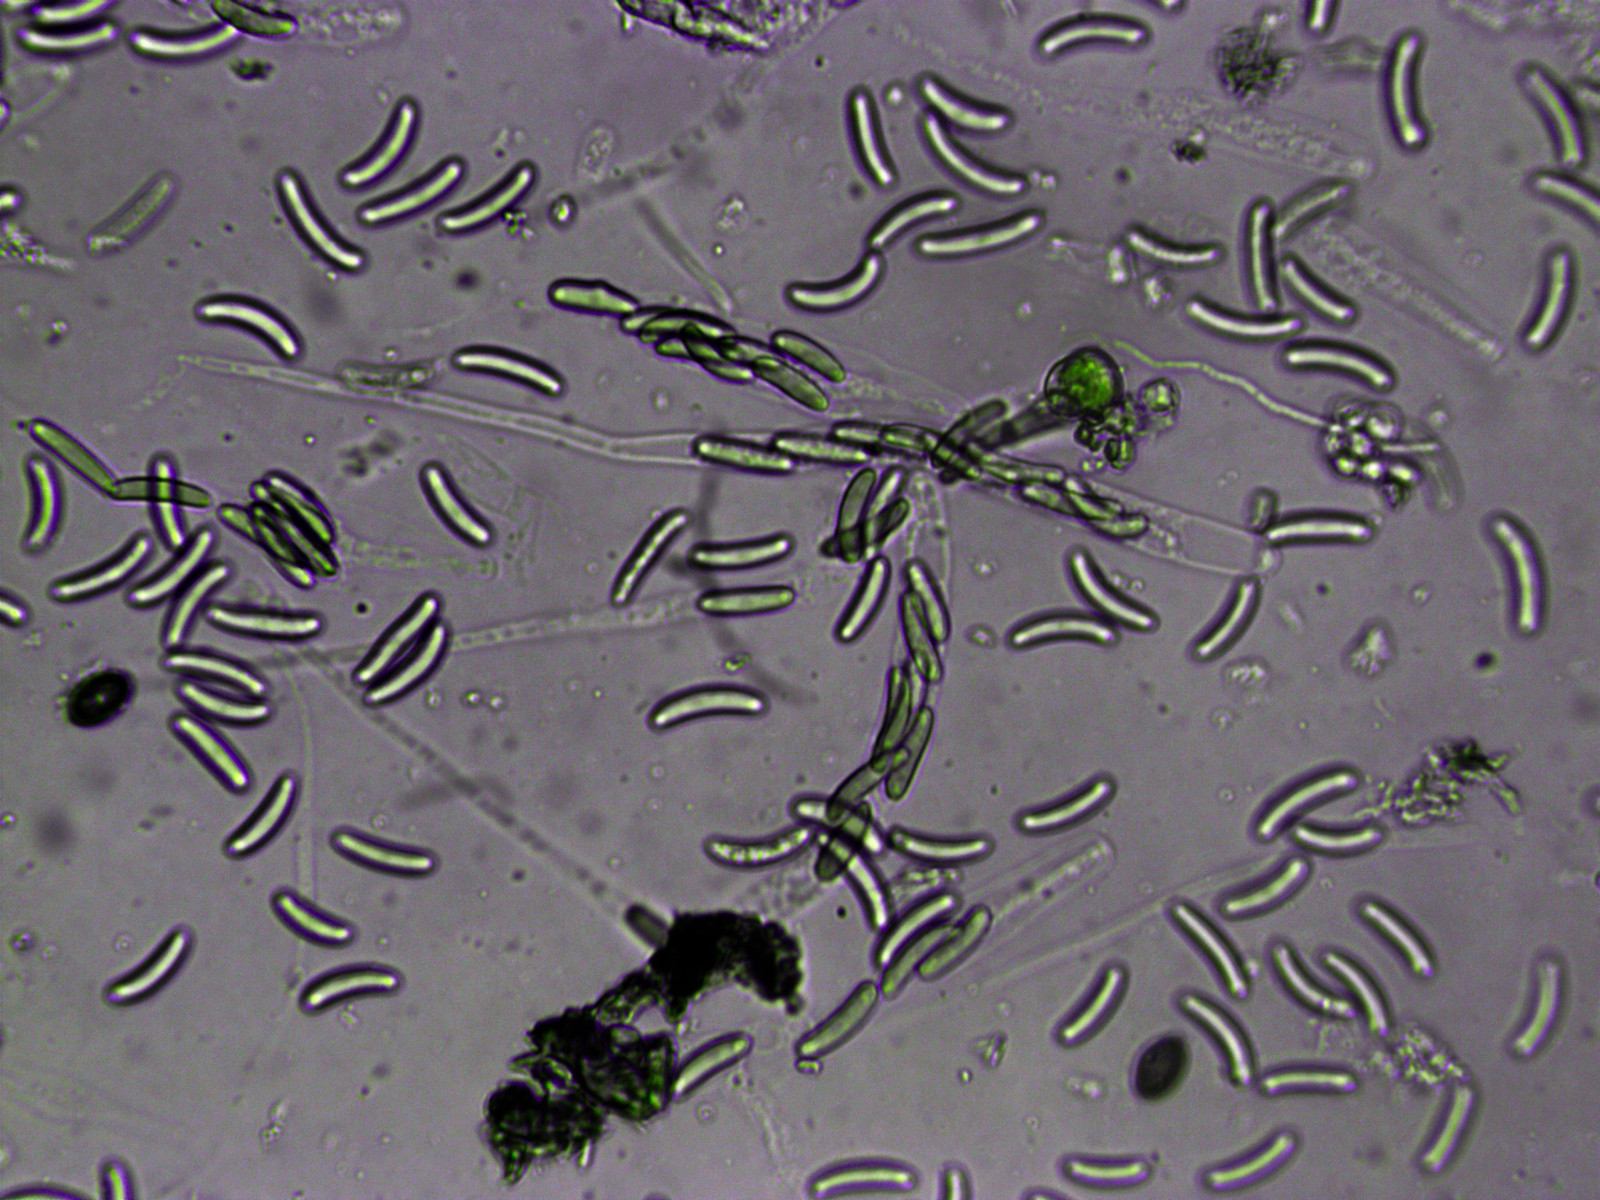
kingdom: Fungi
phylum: Ascomycota
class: Sordariomycetes
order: Xylariales
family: Diatrypaceae
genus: Eutypella
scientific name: Eutypella quaternata
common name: bøge-korsprik
